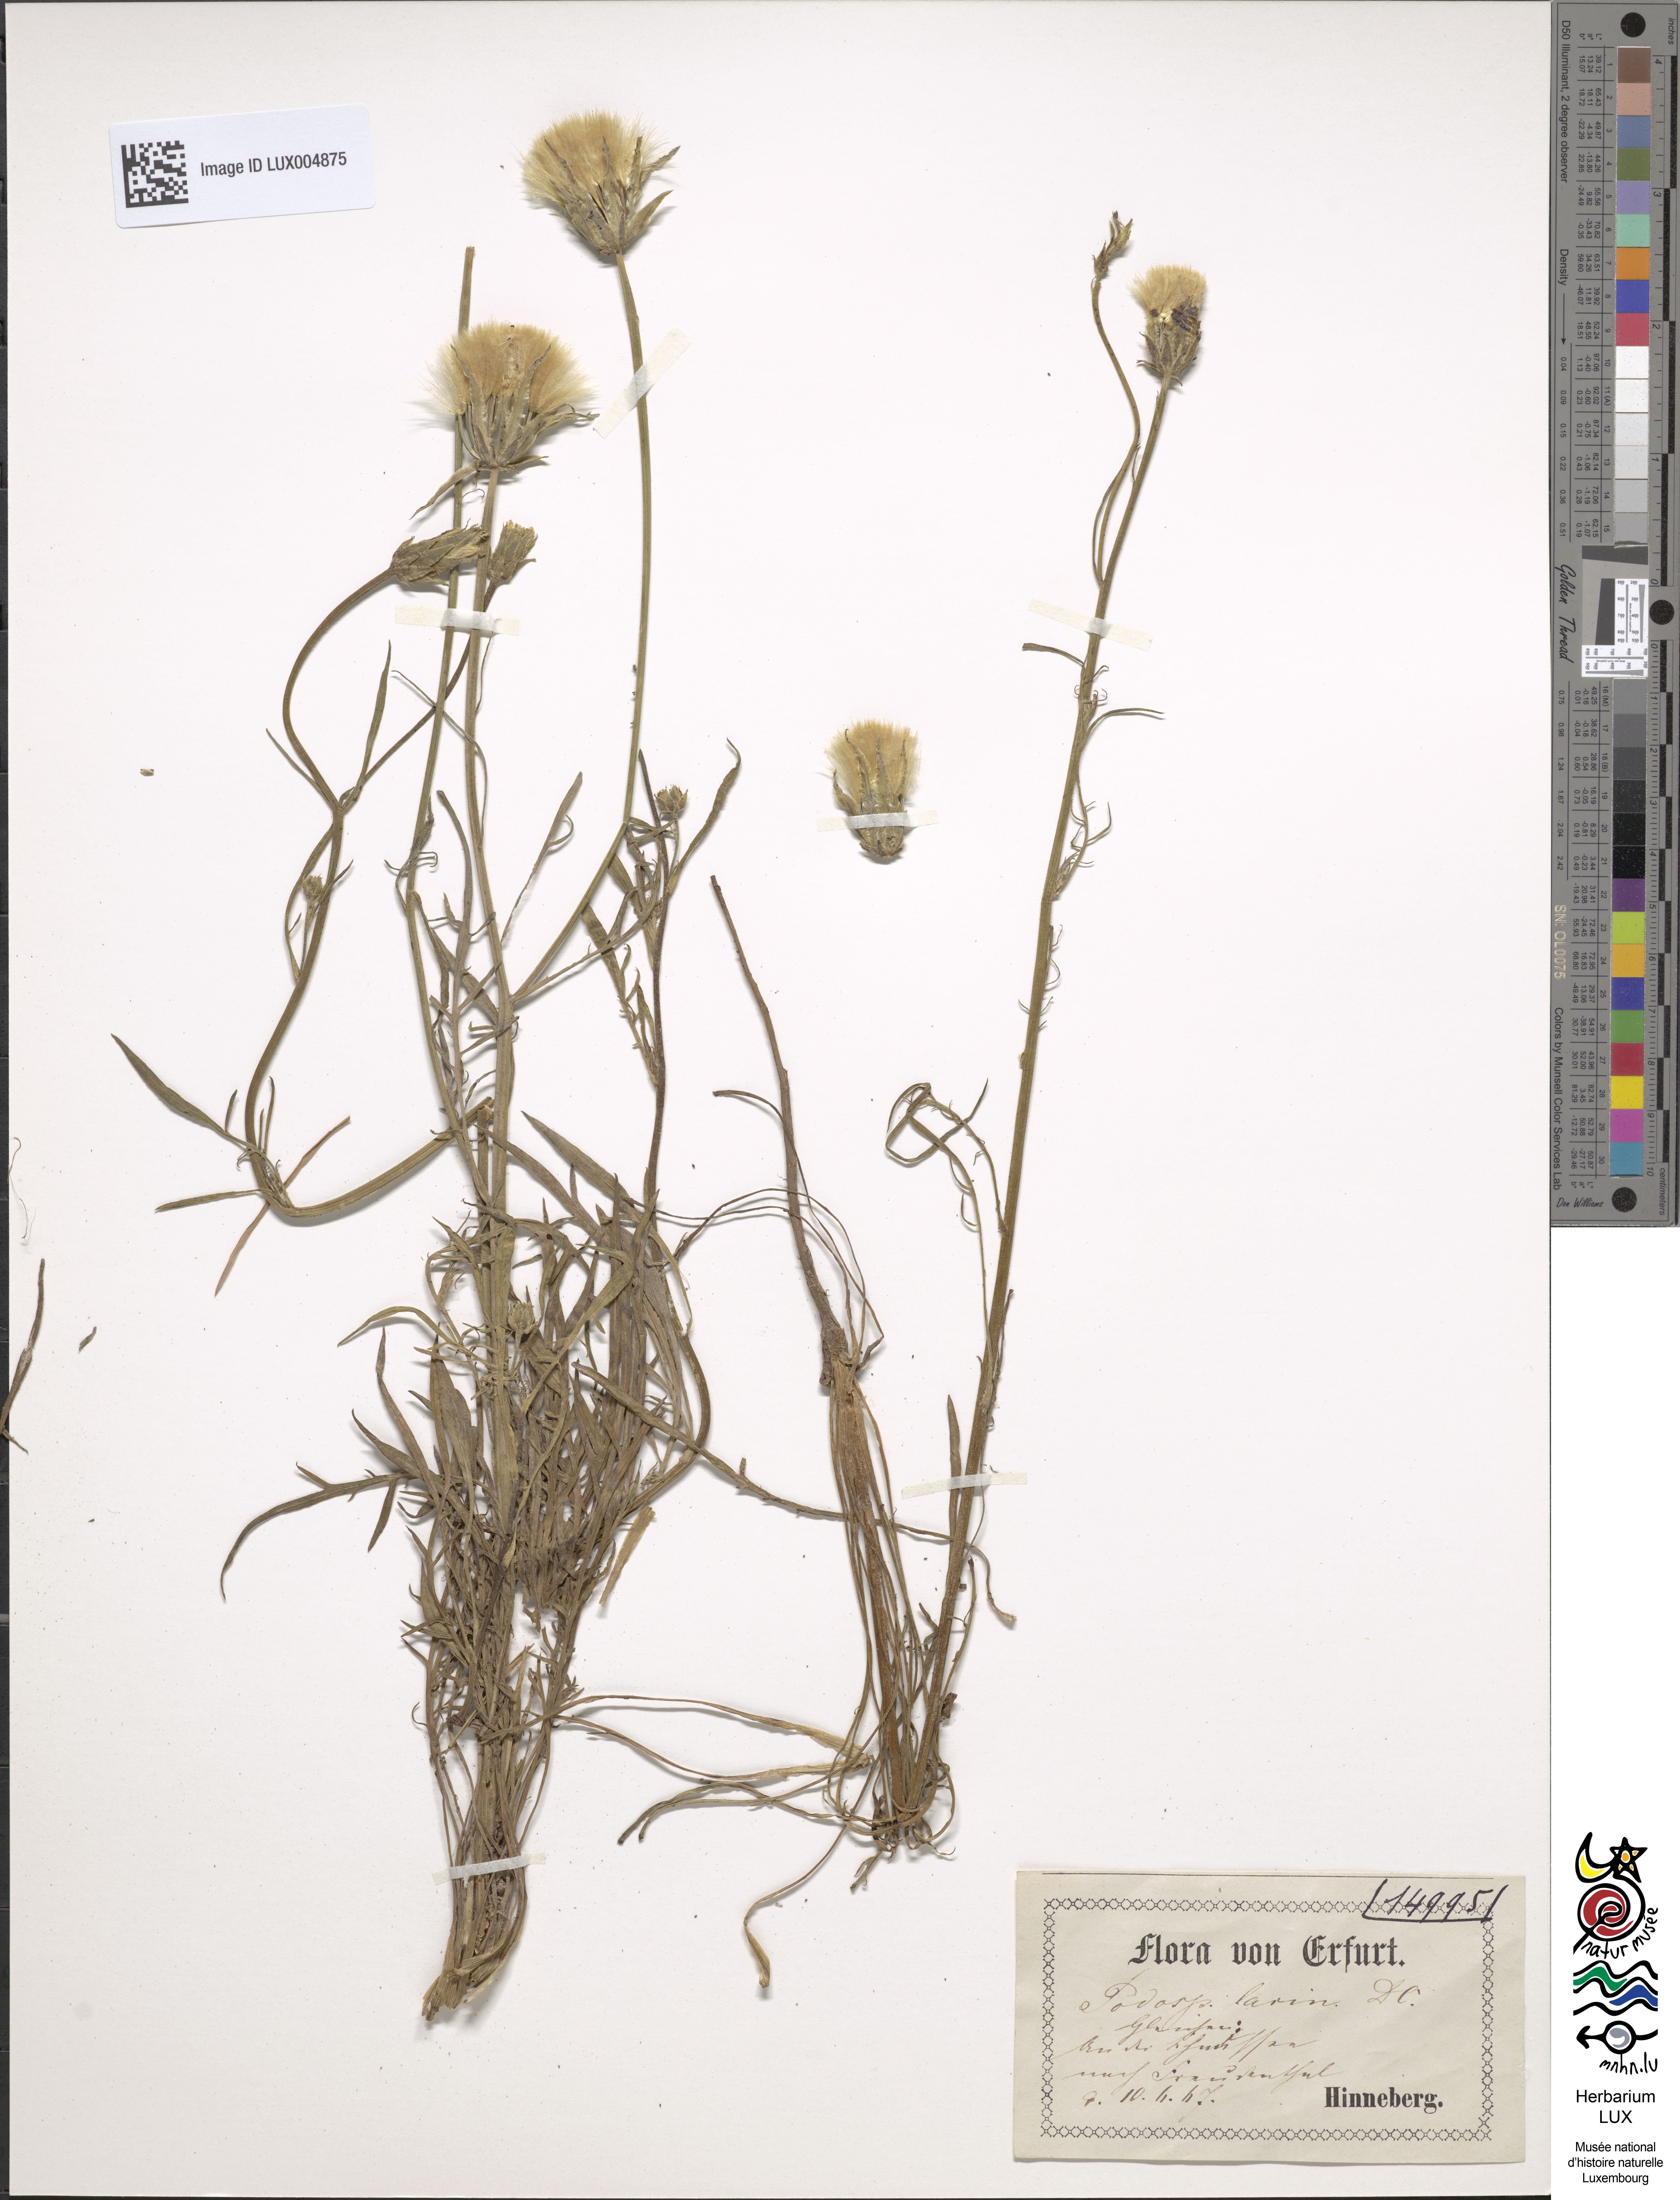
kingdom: Plantae
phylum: Tracheophyta
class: Magnoliopsida
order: Asterales
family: Asteraceae
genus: Scorzonera
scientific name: Scorzonera laciniata
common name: Cutleaf vipergrass
